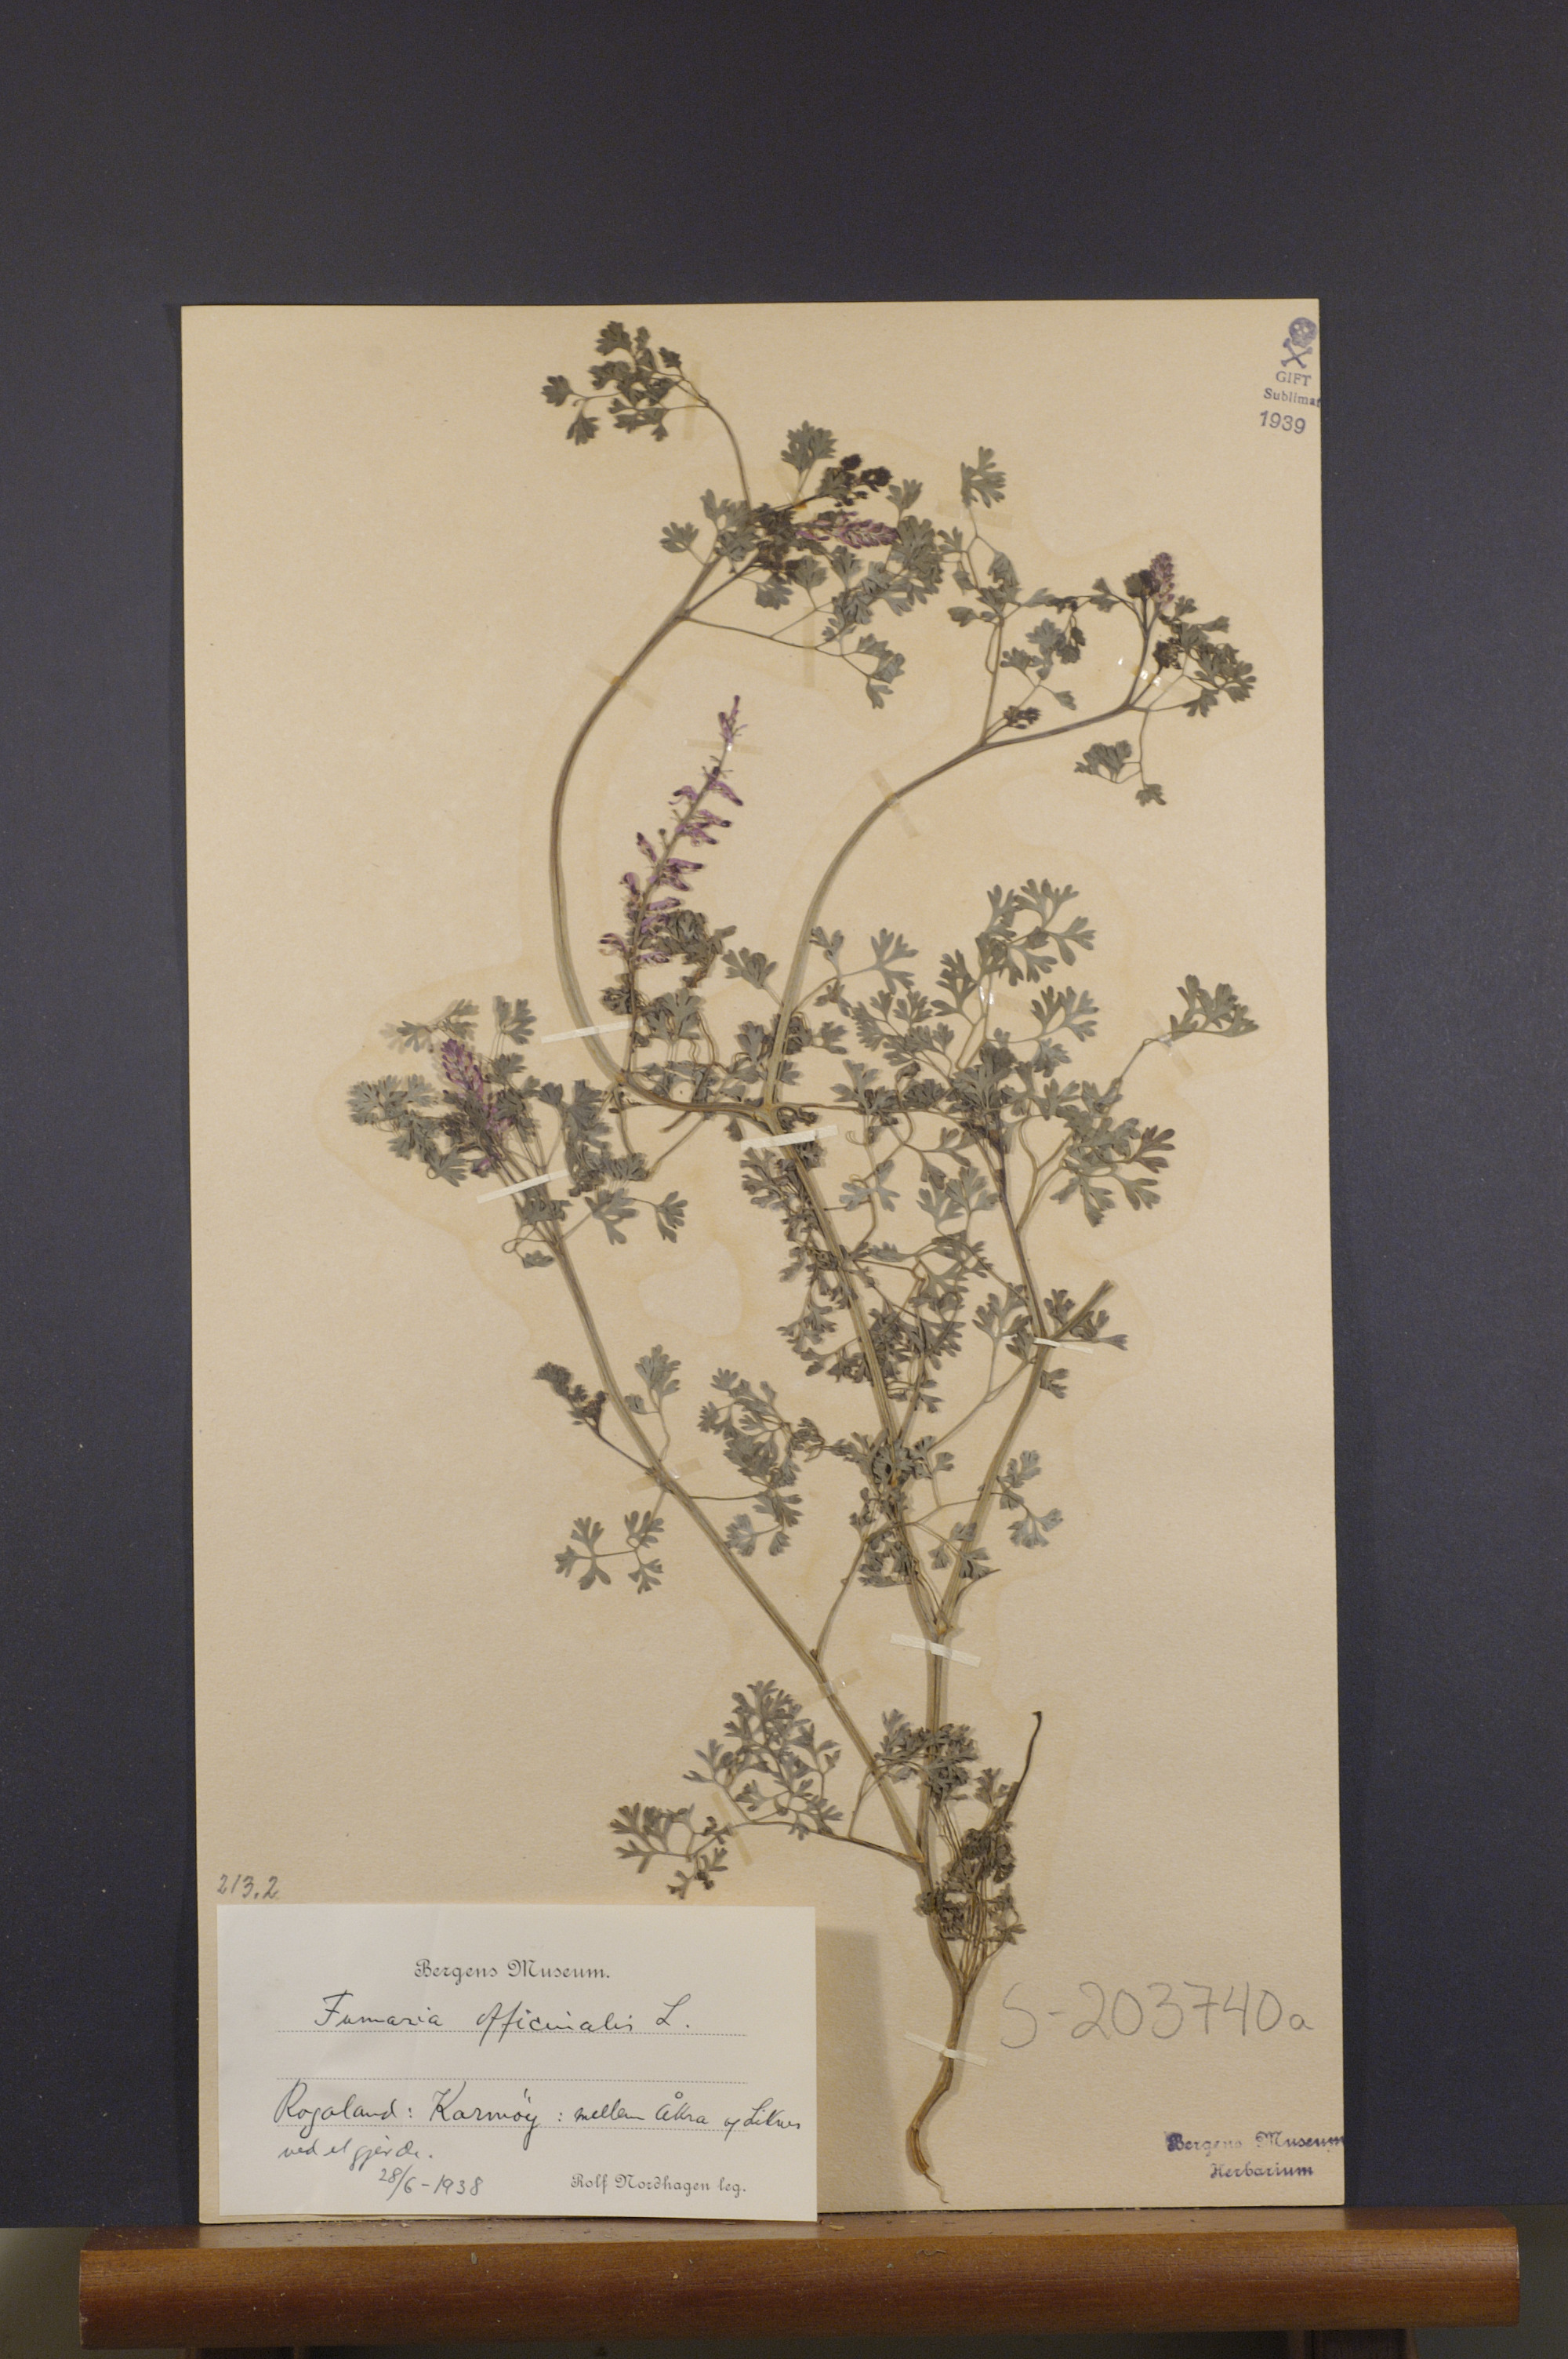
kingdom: Plantae
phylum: Tracheophyta
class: Magnoliopsida
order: Ranunculales
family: Papaveraceae
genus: Fumaria
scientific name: Fumaria officinalis
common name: Common fumitory
